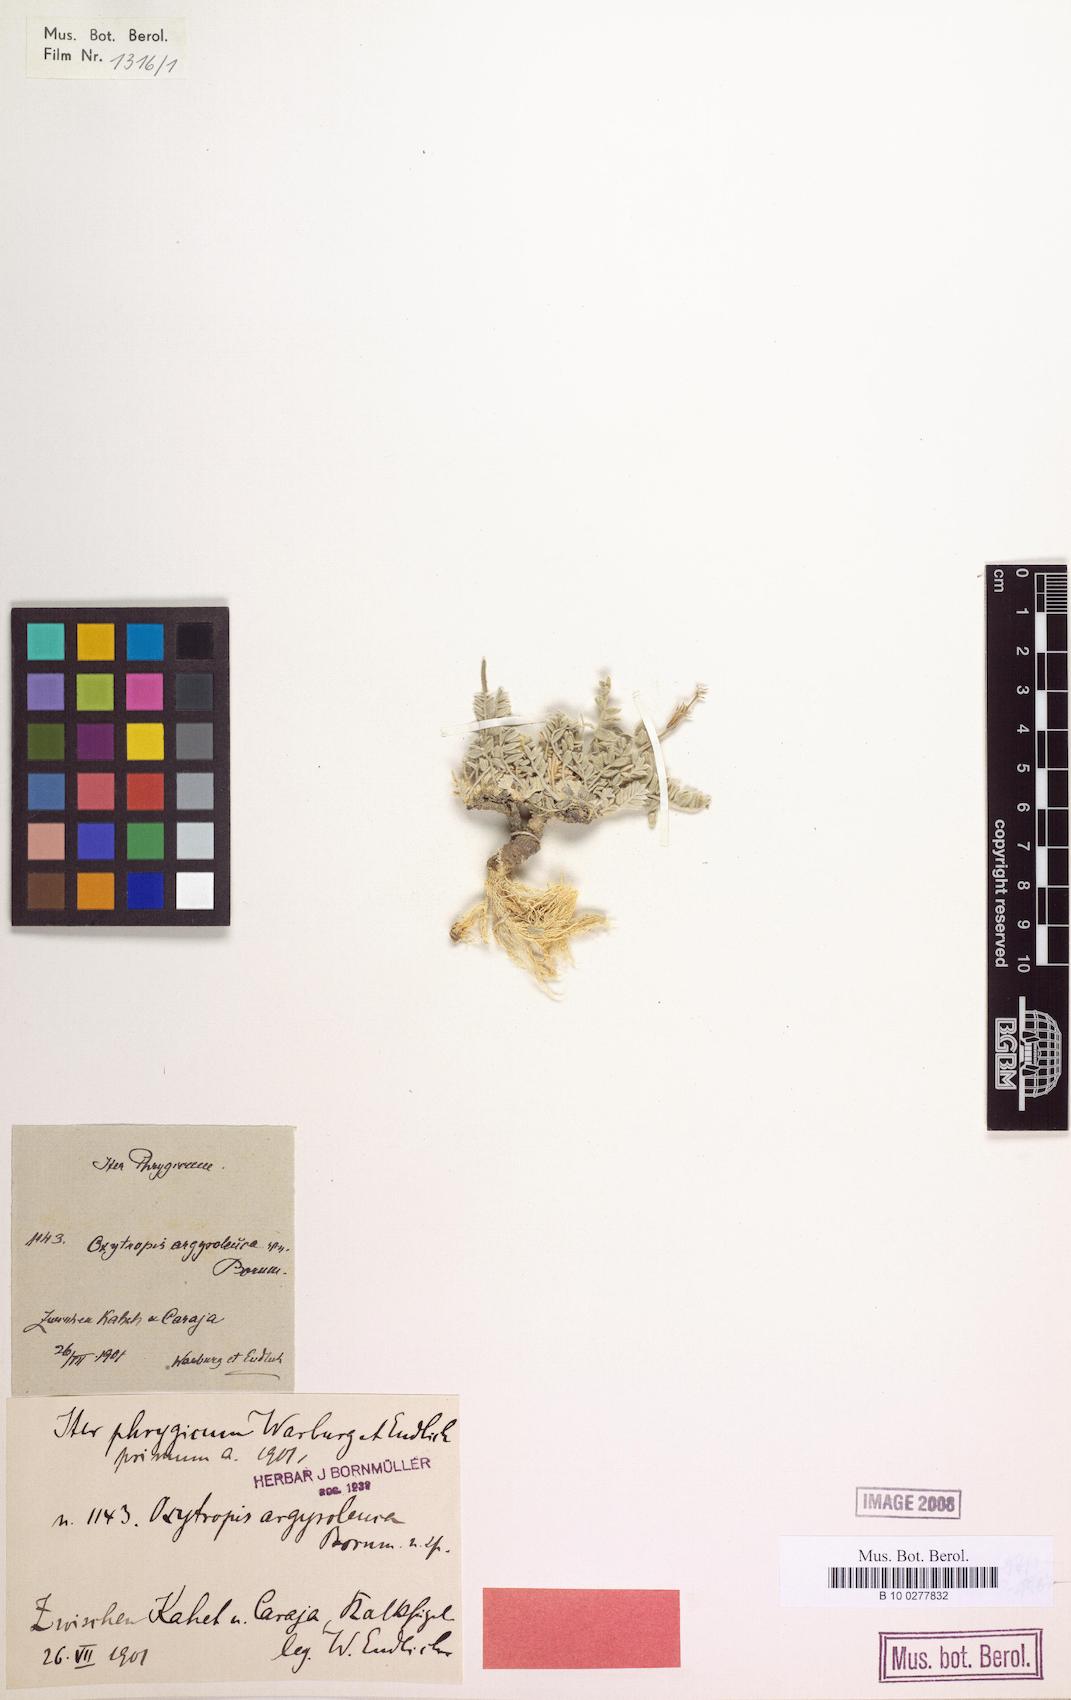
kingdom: Plantae
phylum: Tracheophyta
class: Magnoliopsida
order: Fabales
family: Fabaceae
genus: Oxytropis
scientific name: Oxytropis argyroleuca
